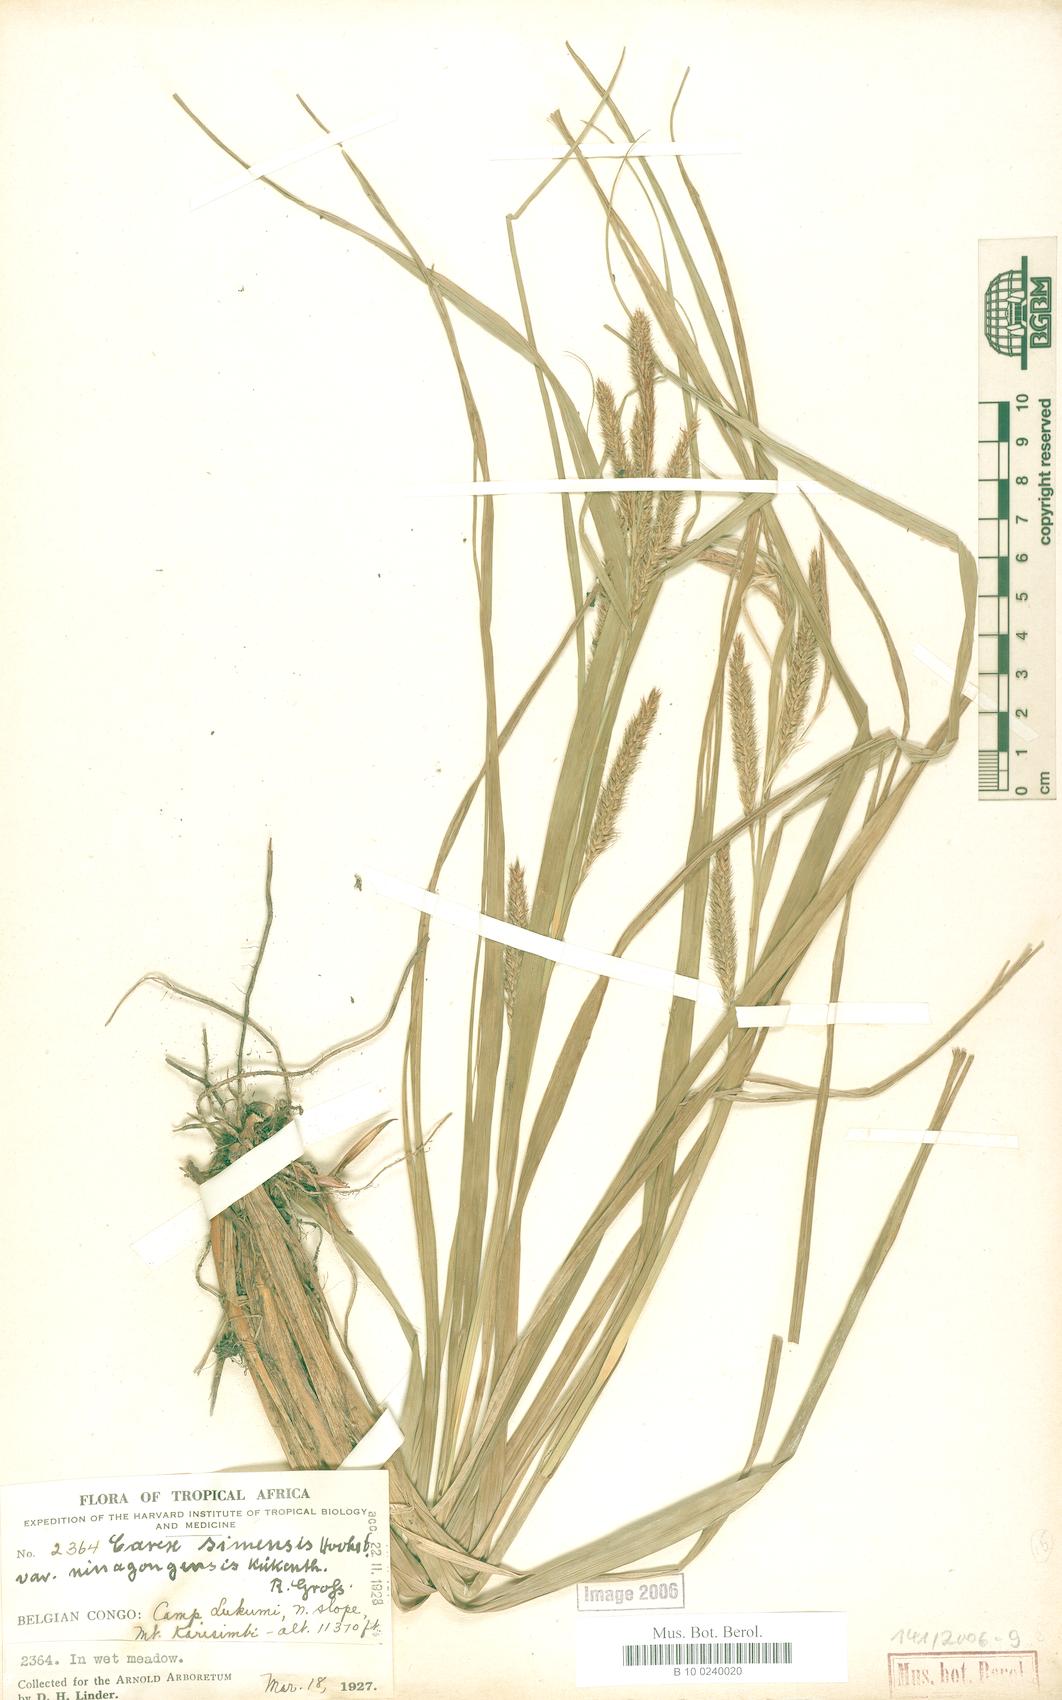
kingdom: Plantae
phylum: Tracheophyta
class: Liliopsida
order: Poales
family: Cyperaceae
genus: Carex
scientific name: Carex fischeri
